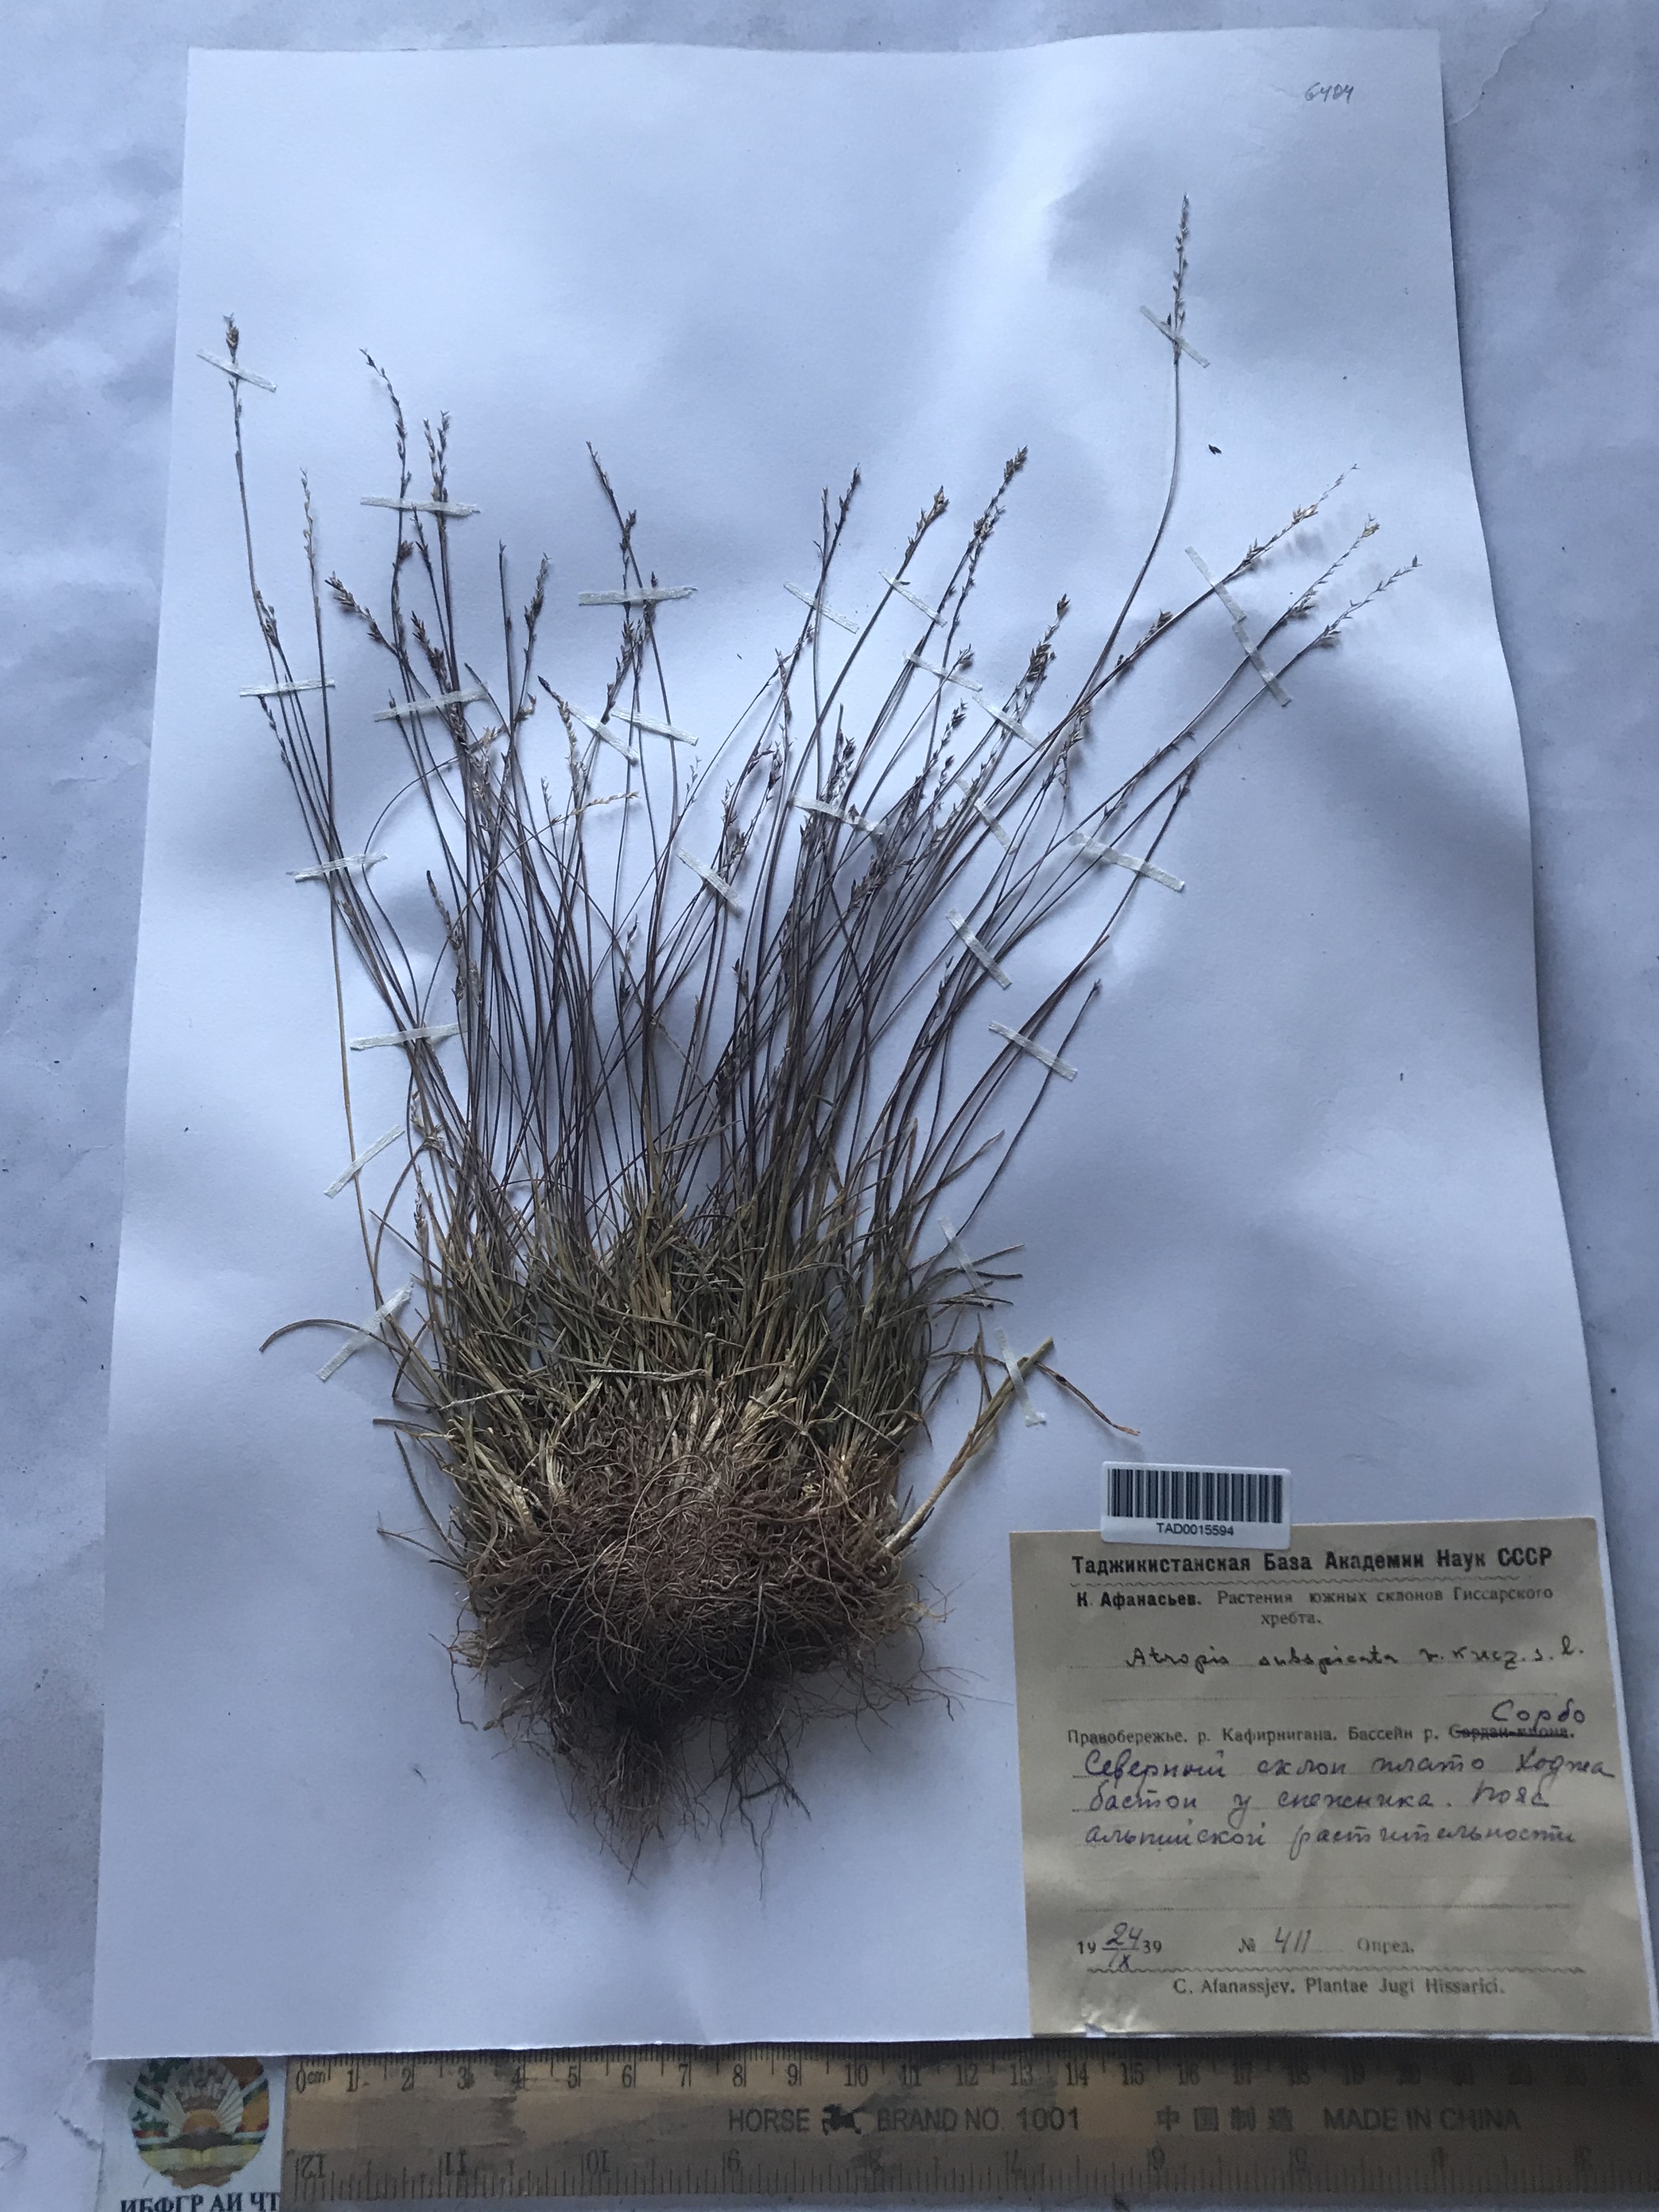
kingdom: Plantae
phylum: Tracheophyta
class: Liliopsida
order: Poales
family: Poaceae
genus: Puccinellia
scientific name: Puccinellia subspicata
